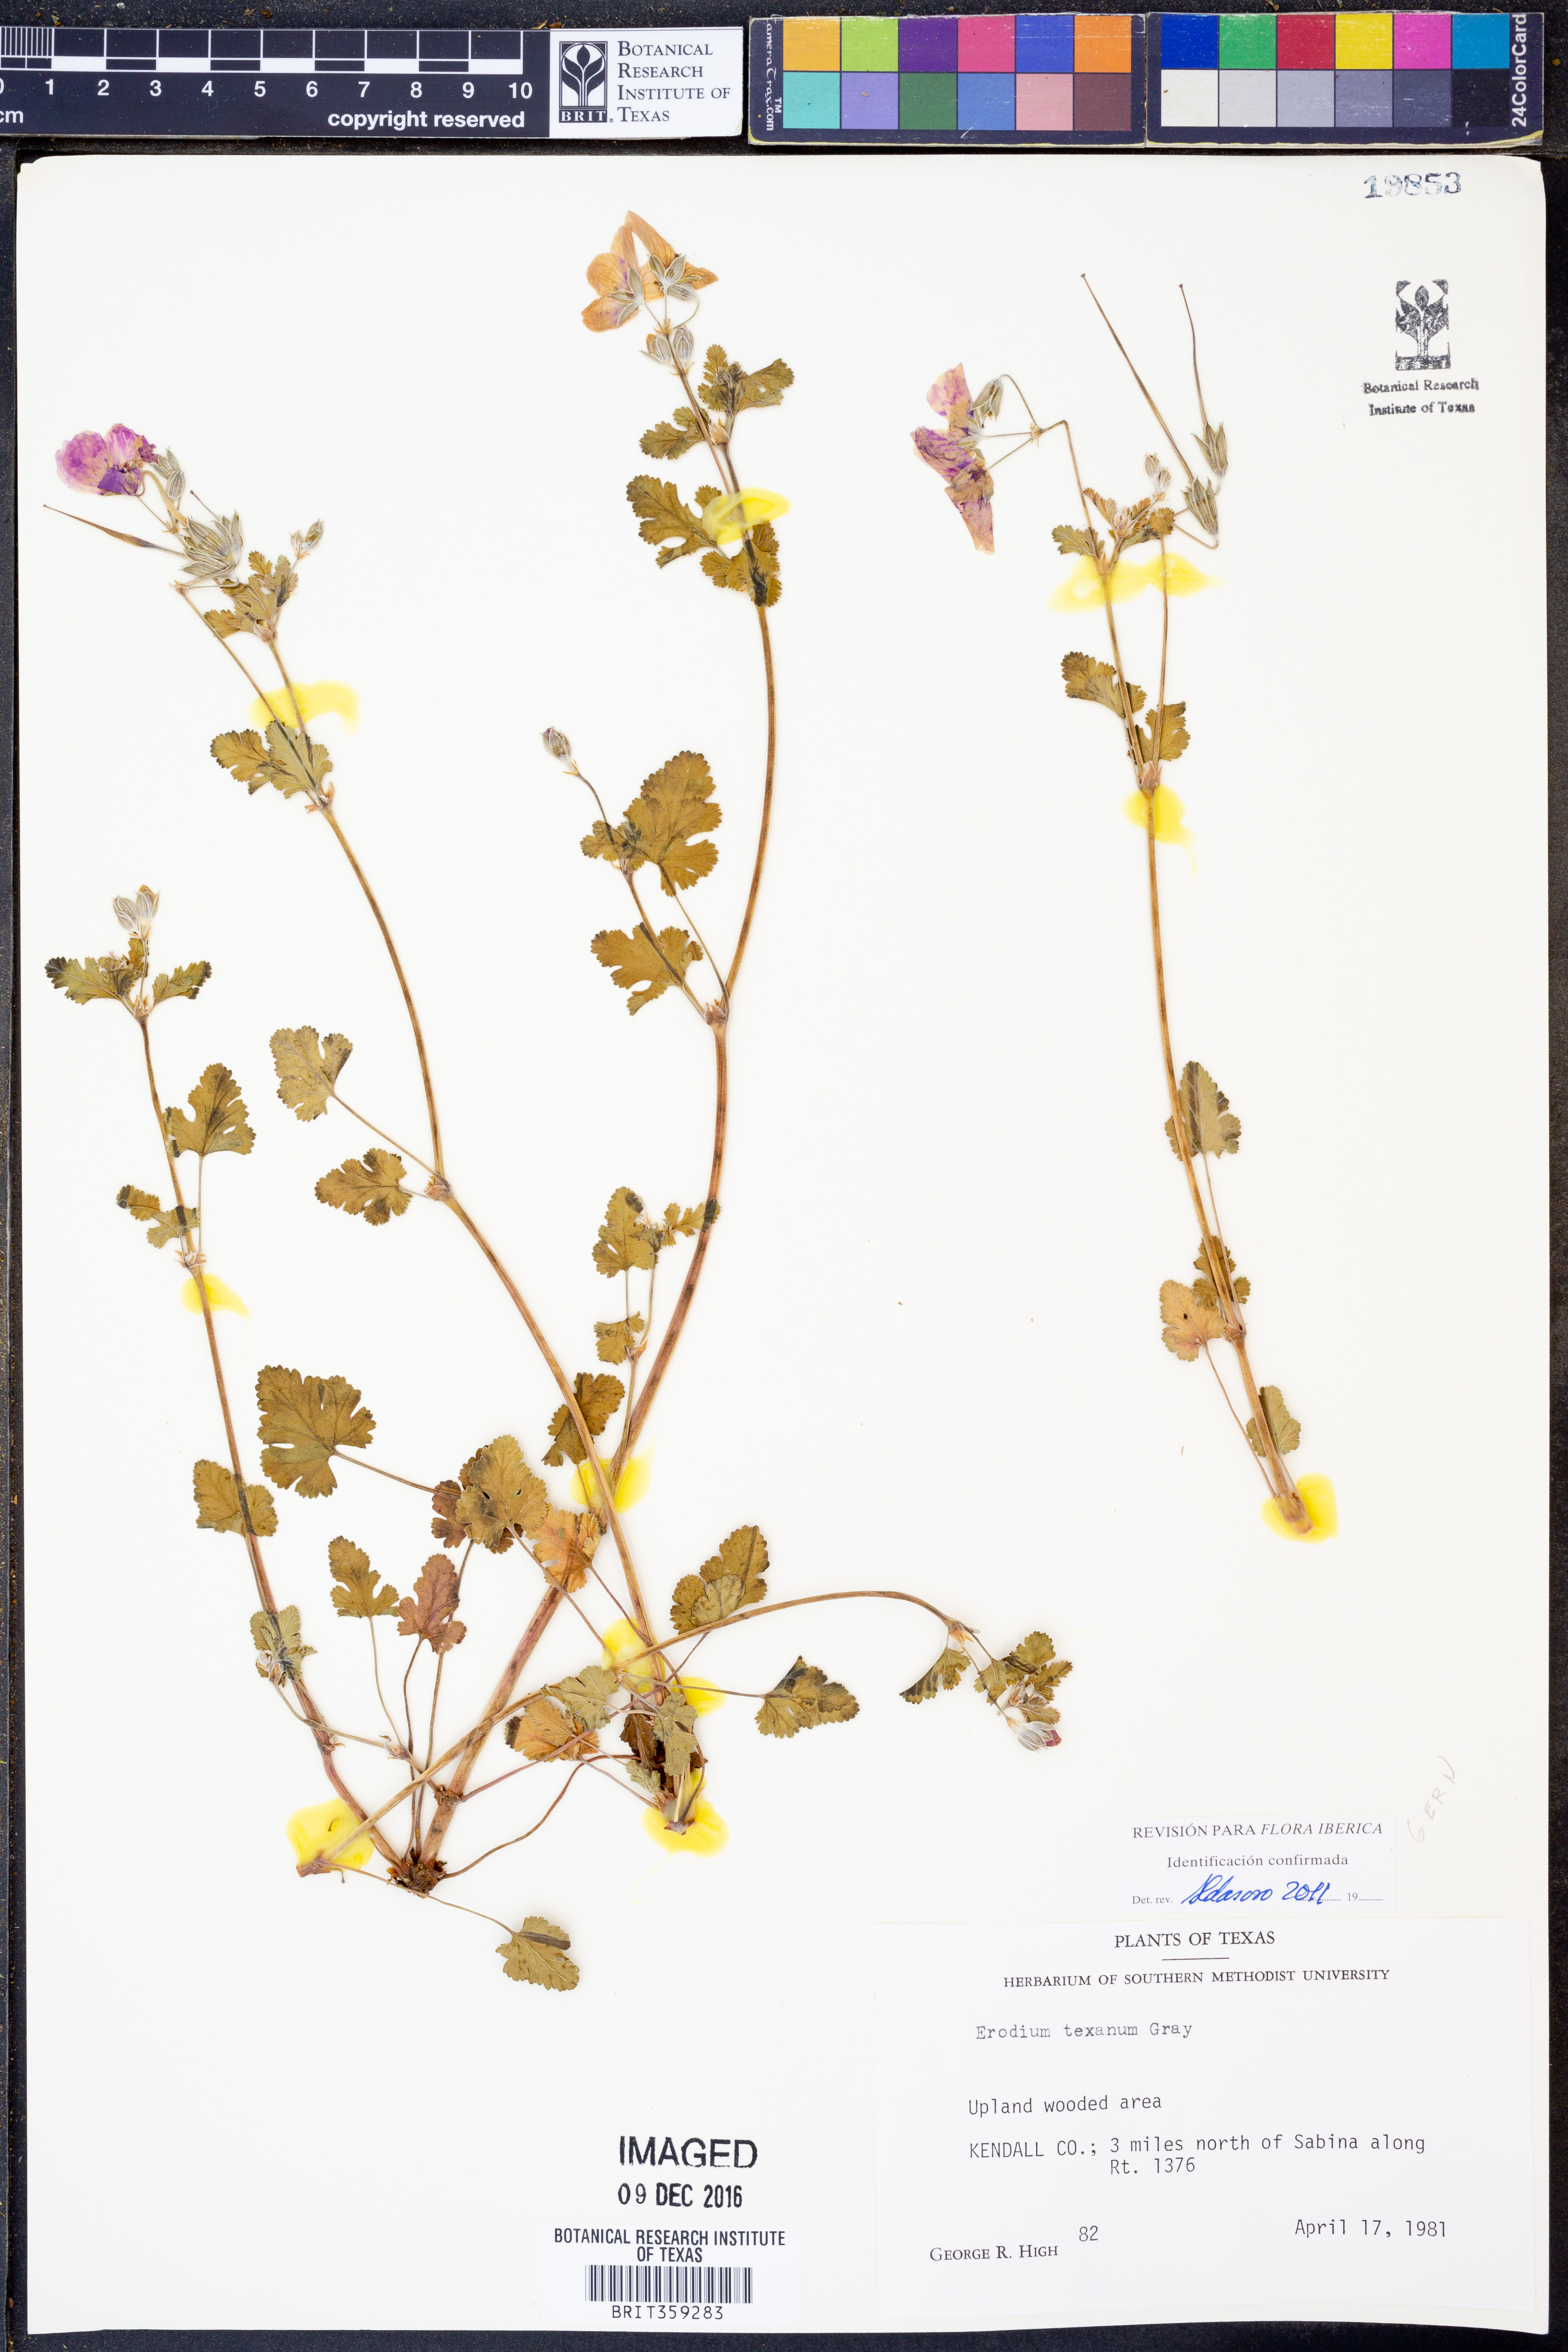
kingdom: Plantae
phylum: Tracheophyta
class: Magnoliopsida
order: Geraniales
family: Geraniaceae
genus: Erodium
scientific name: Erodium texanum
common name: Texas stork's-bill
